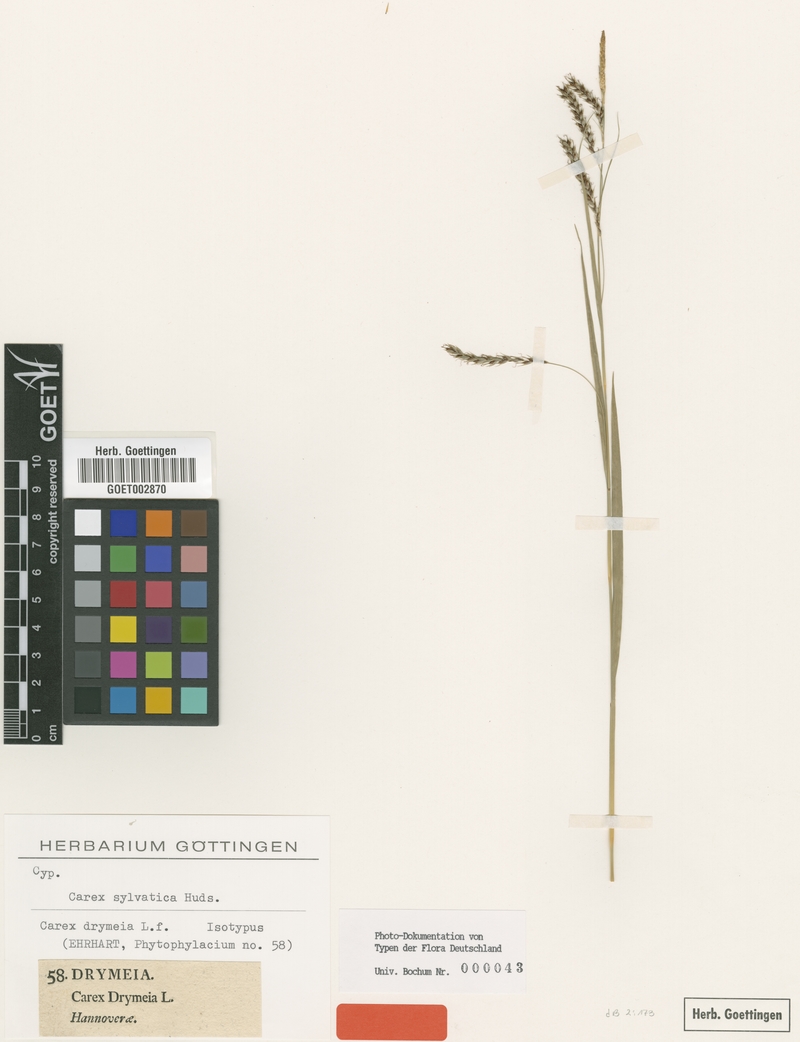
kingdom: Plantae
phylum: Tracheophyta
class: Liliopsida
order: Poales
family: Cyperaceae
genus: Carex
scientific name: Carex sylvatica
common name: Wood-sedge
